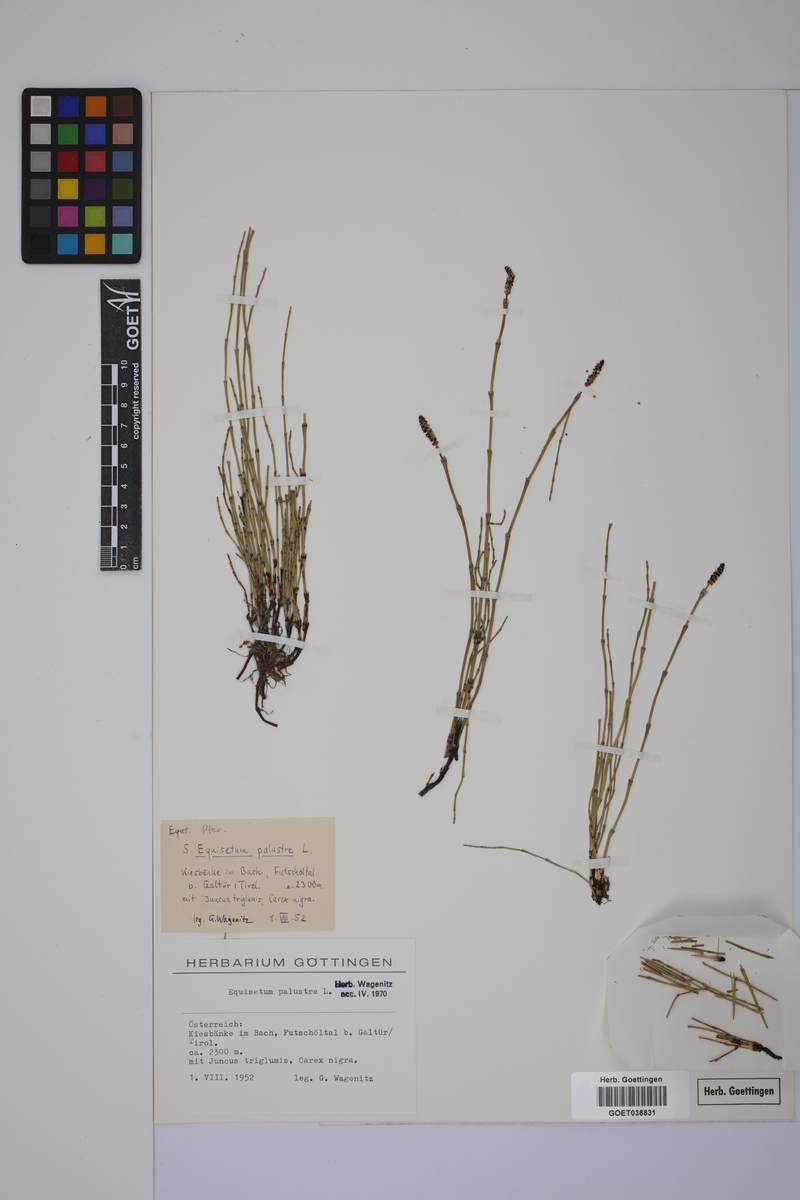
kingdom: Plantae
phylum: Tracheophyta
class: Polypodiopsida
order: Equisetales
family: Equisetaceae
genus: Equisetum
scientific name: Equisetum palustre
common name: Marsh horsetail
